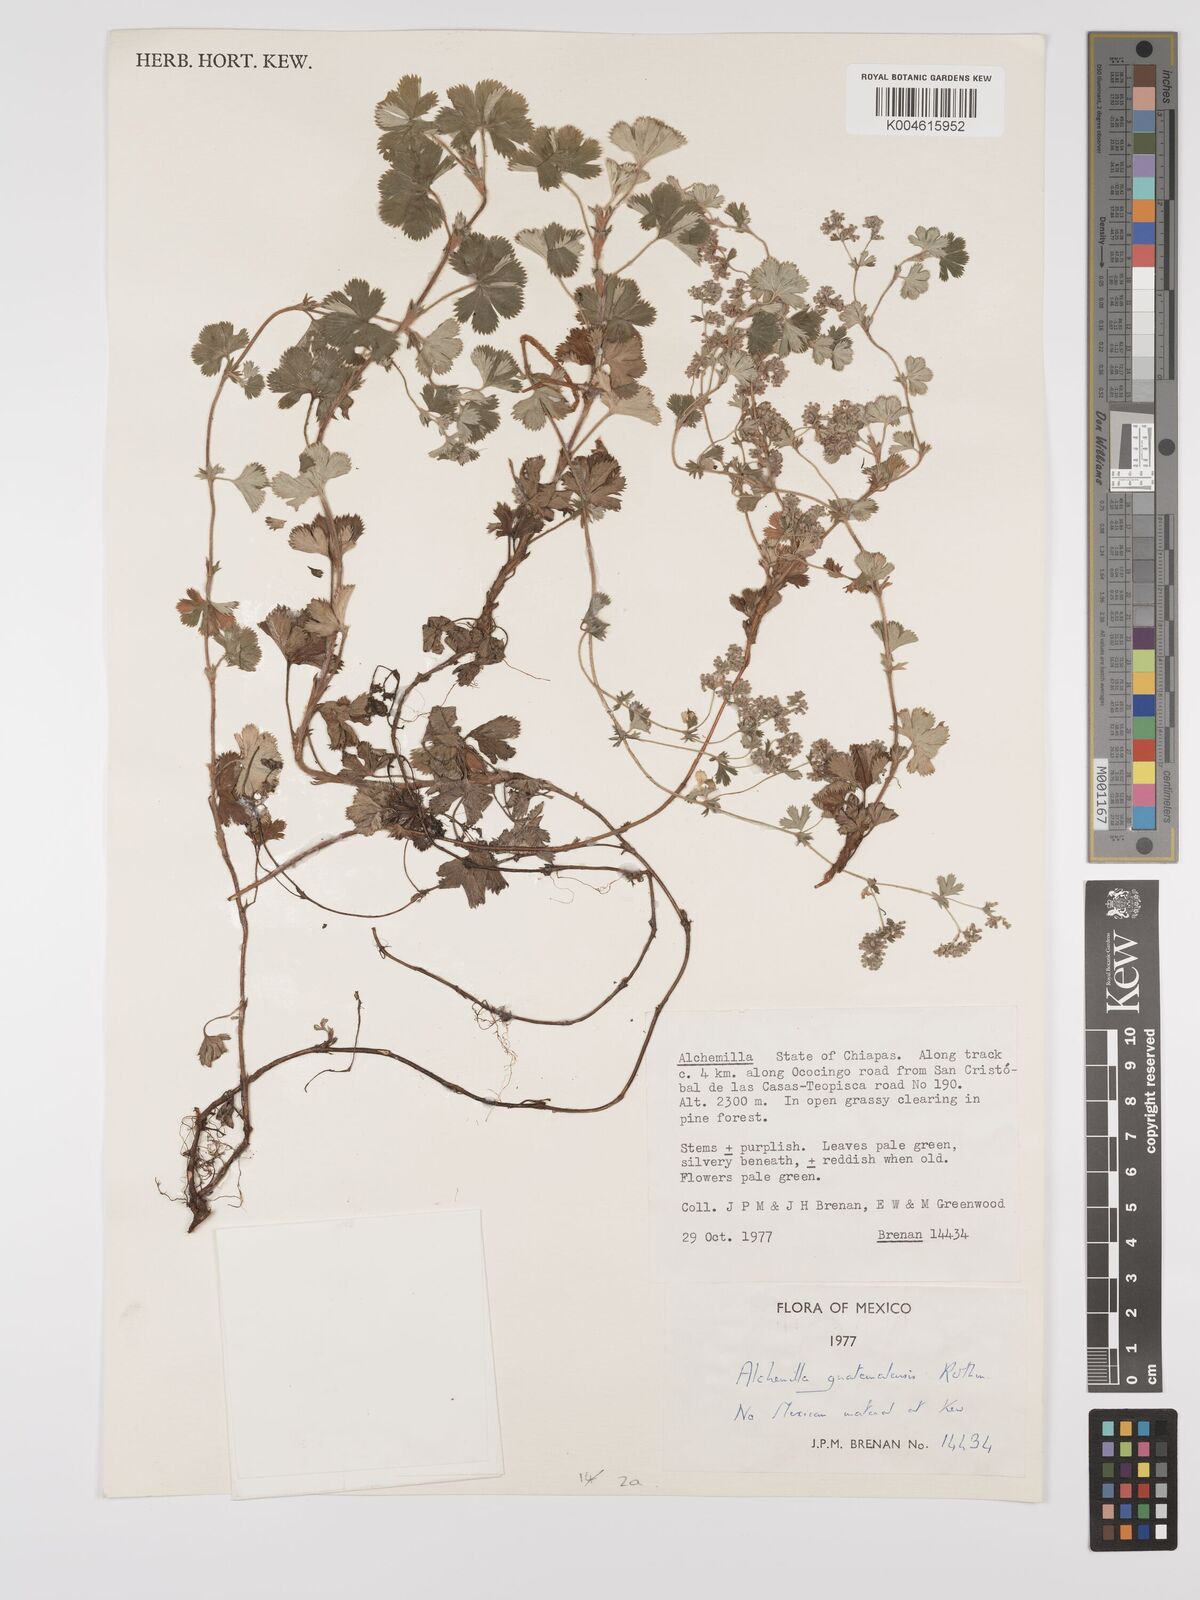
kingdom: Plantae
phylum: Tracheophyta
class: Magnoliopsida
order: Rosales
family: Rosaceae
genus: Lachemilla
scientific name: Lachemilla venusta
